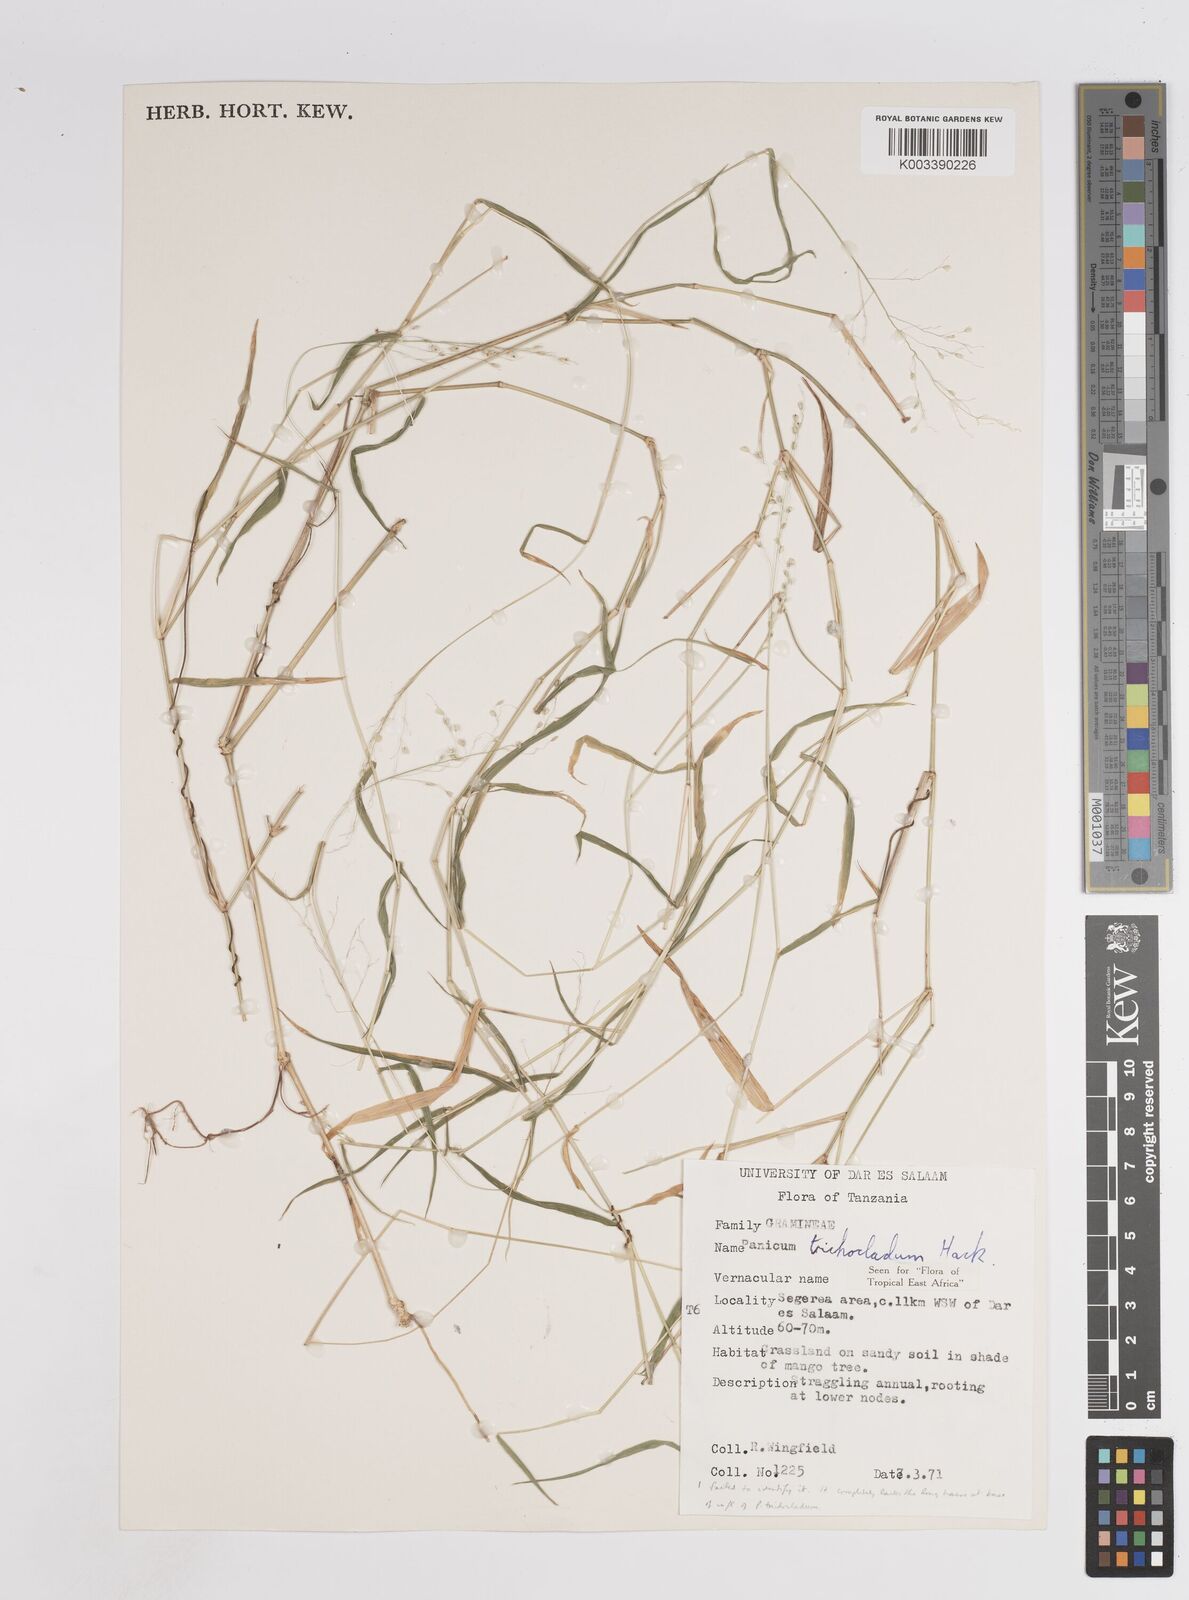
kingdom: Plantae
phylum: Tracheophyta
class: Liliopsida
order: Poales
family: Poaceae
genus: Panicum
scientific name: Panicum trichocladum
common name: Donkey grass
